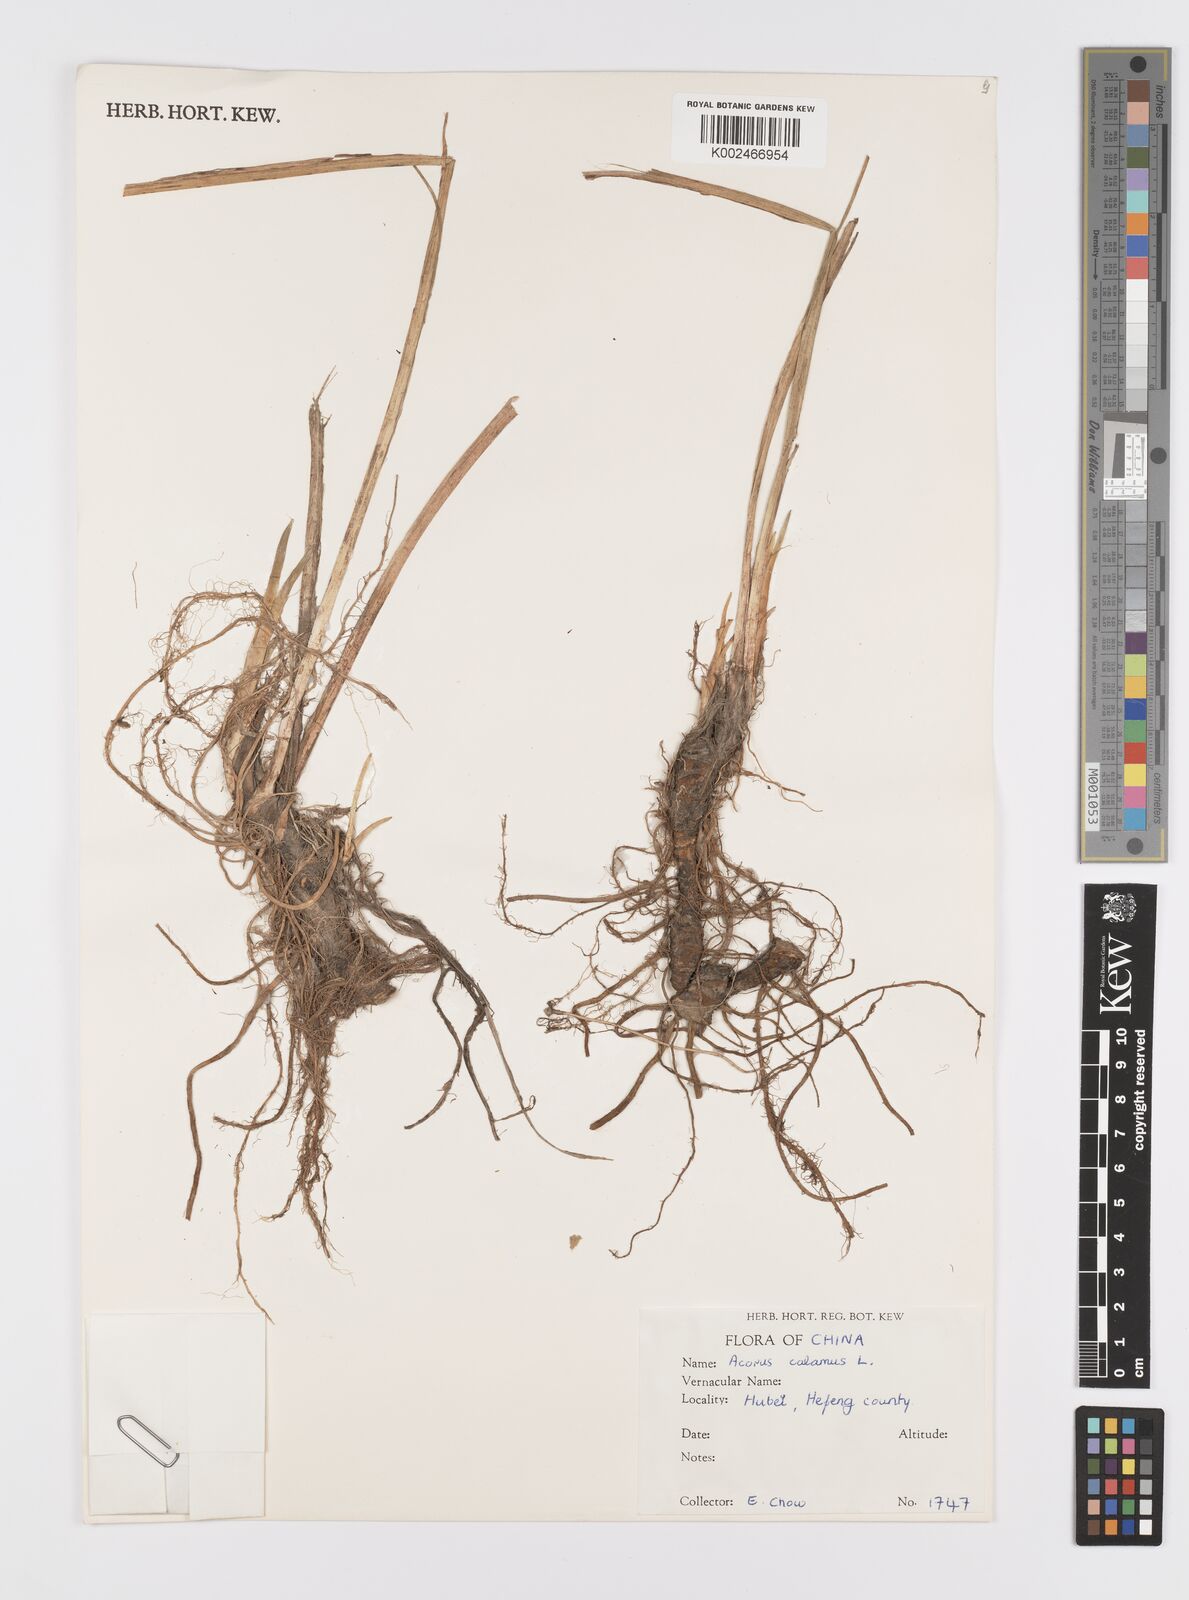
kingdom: Plantae
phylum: Tracheophyta
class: Liliopsida
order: Acorales
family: Acoraceae
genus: Acorus
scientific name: Acorus calamus
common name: Sweet-flag
